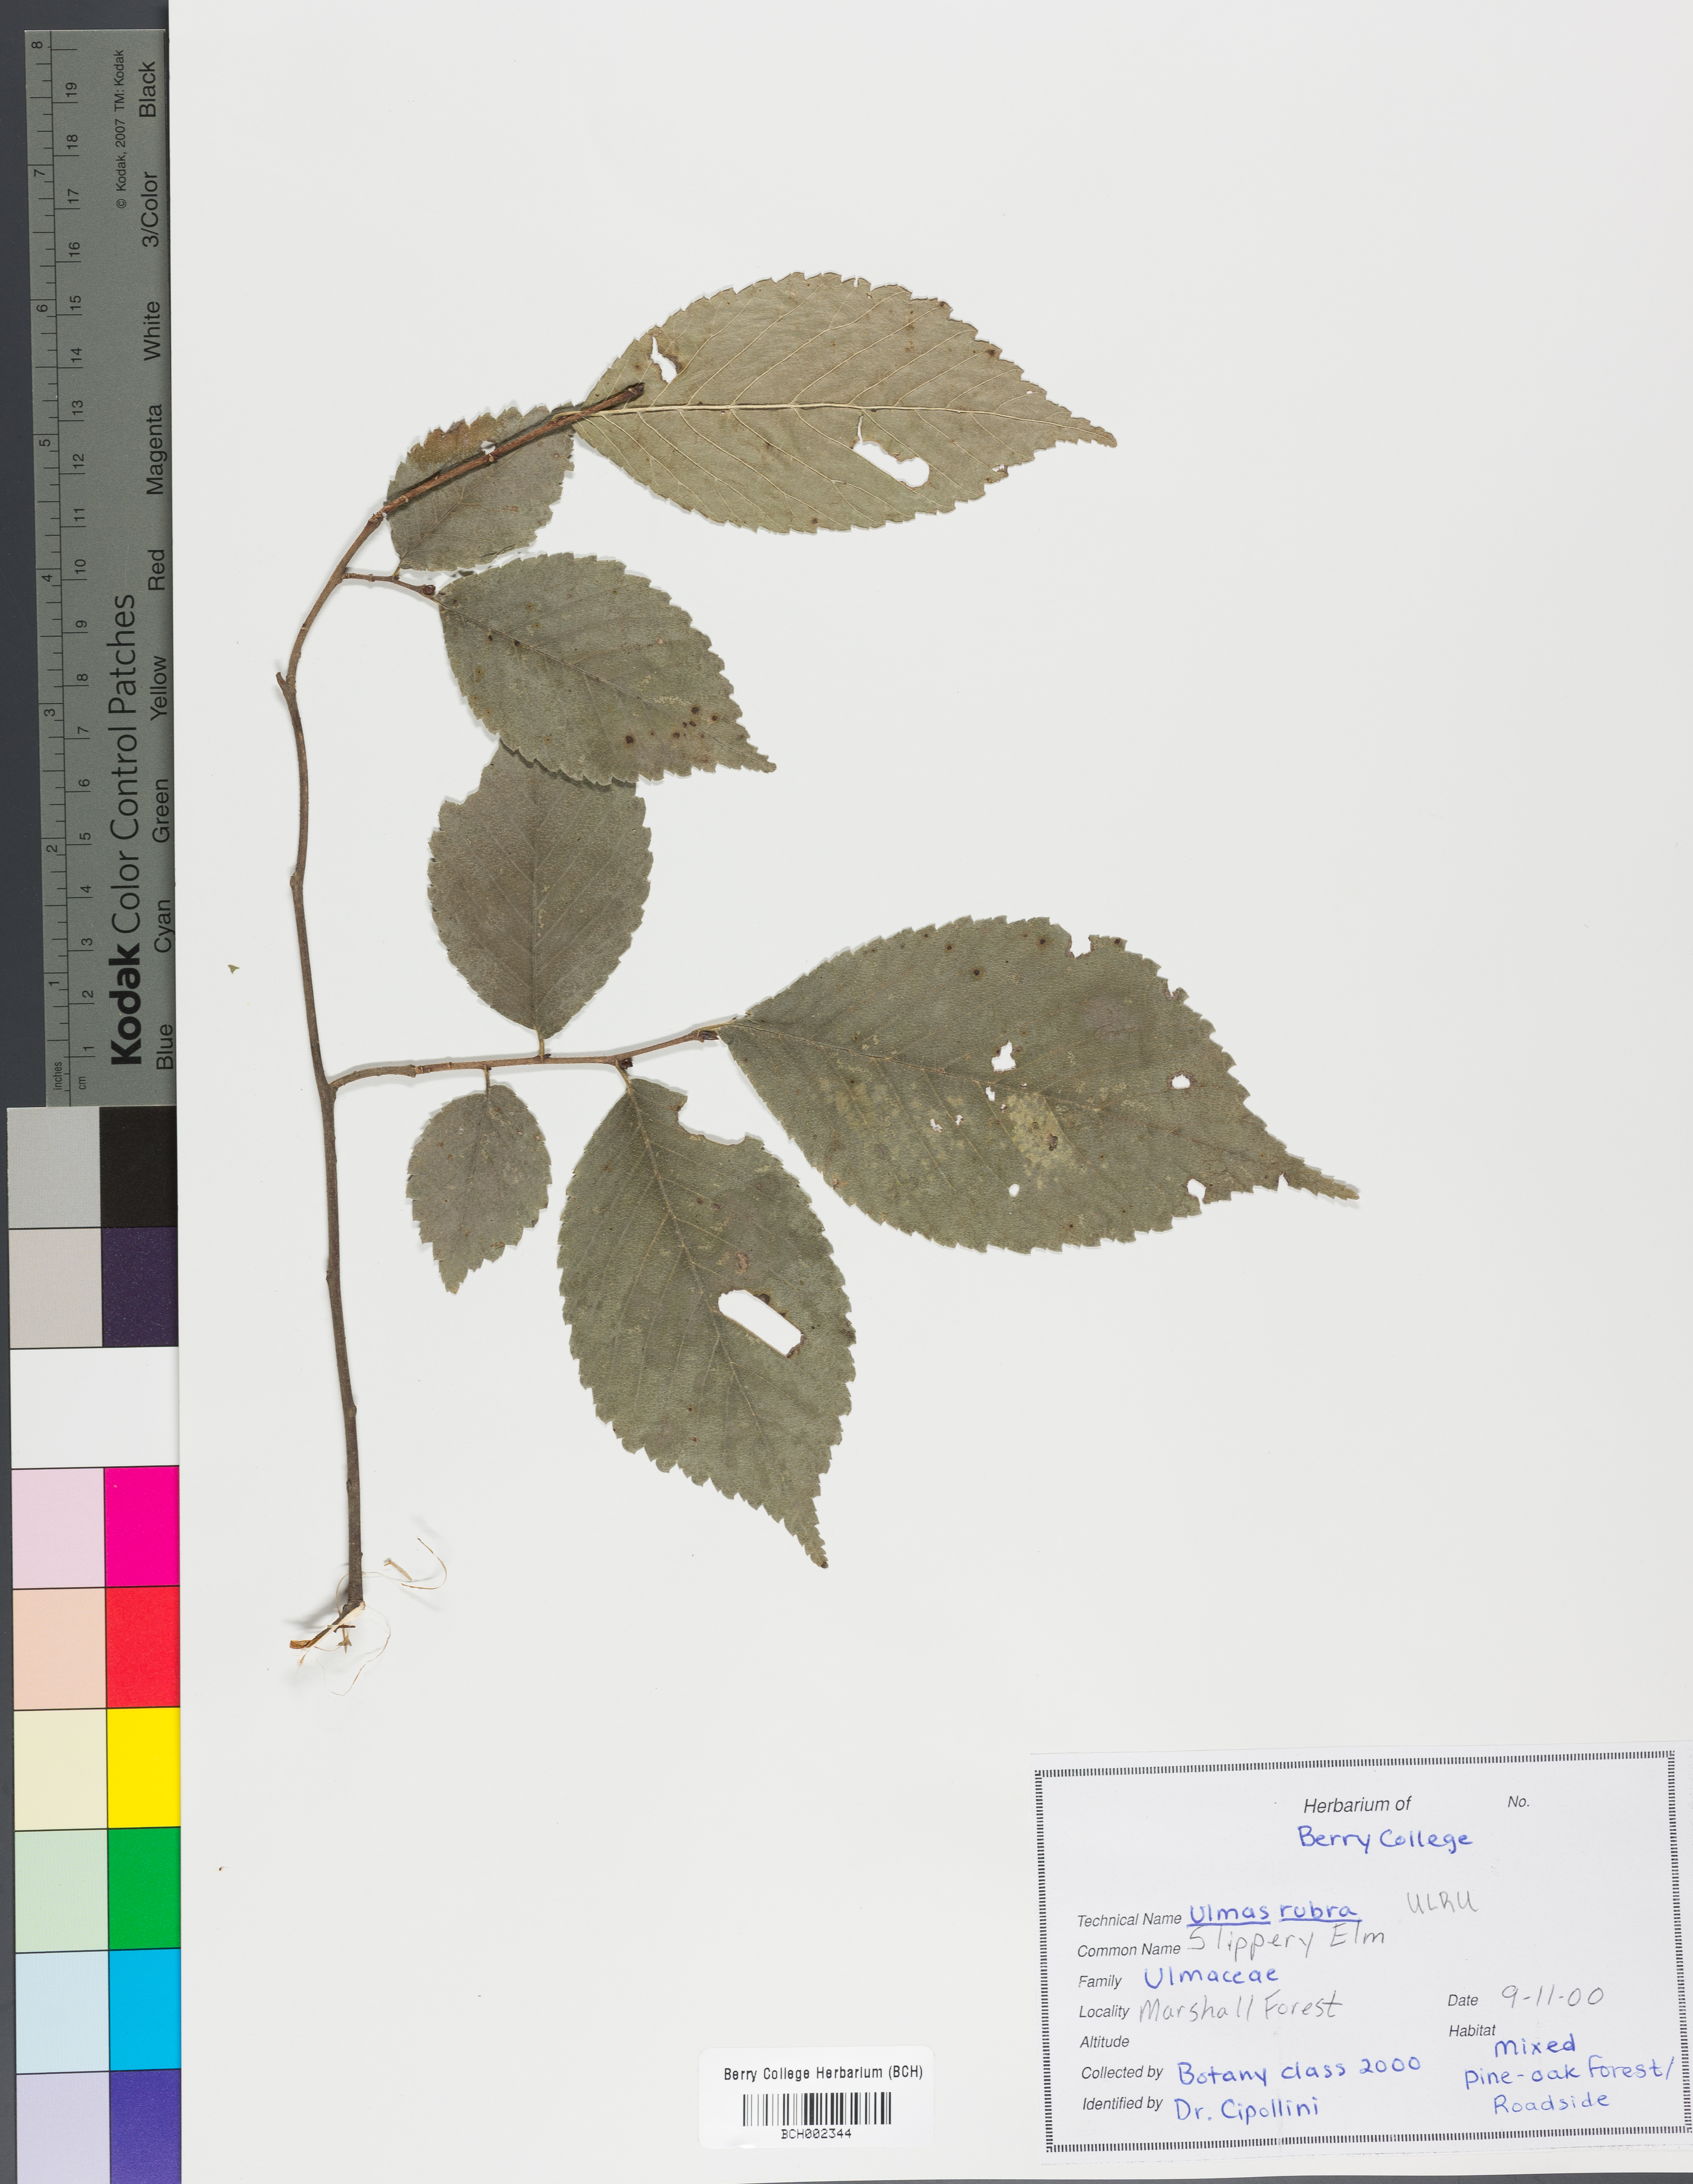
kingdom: Plantae
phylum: Tracheophyta
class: Magnoliopsida
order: Rosales
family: Ulmaceae
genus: Ulmus
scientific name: Ulmus rubra
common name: Slippery elm
